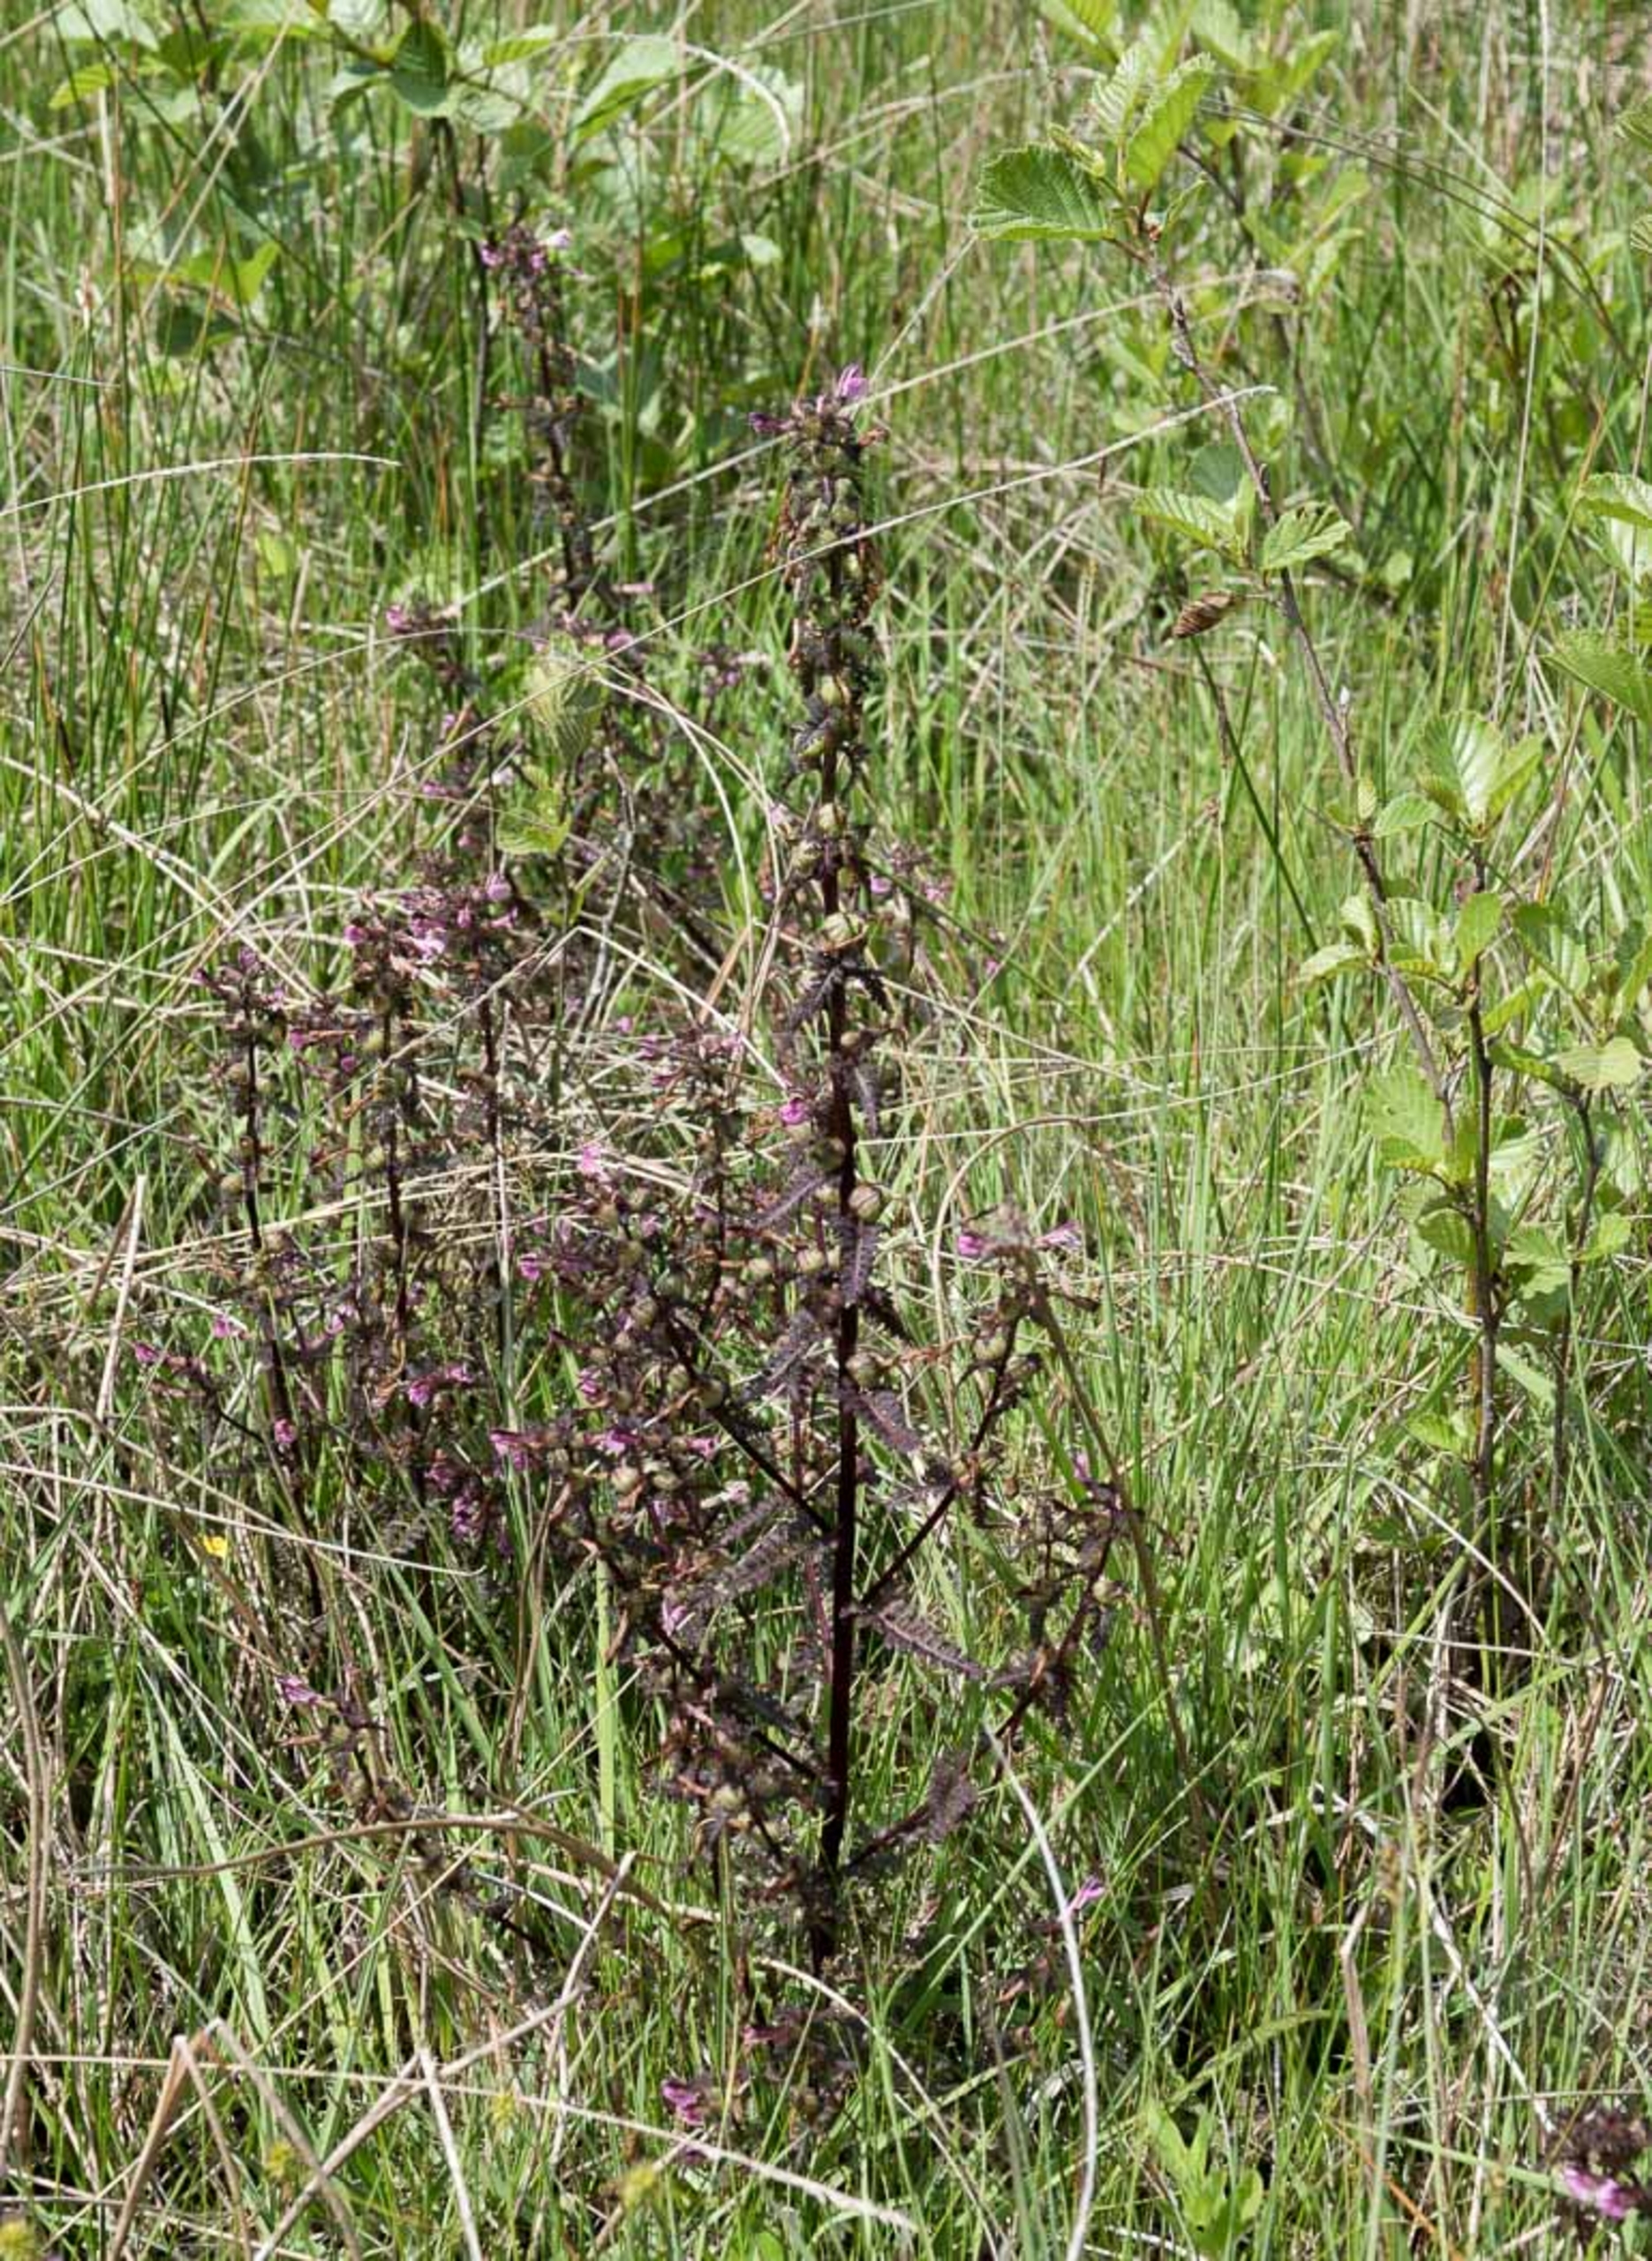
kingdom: Plantae
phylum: Tracheophyta
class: Magnoliopsida
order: Lamiales
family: Orobanchaceae
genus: Pedicularis
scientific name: Pedicularis palustris
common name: Eng-troldurt
